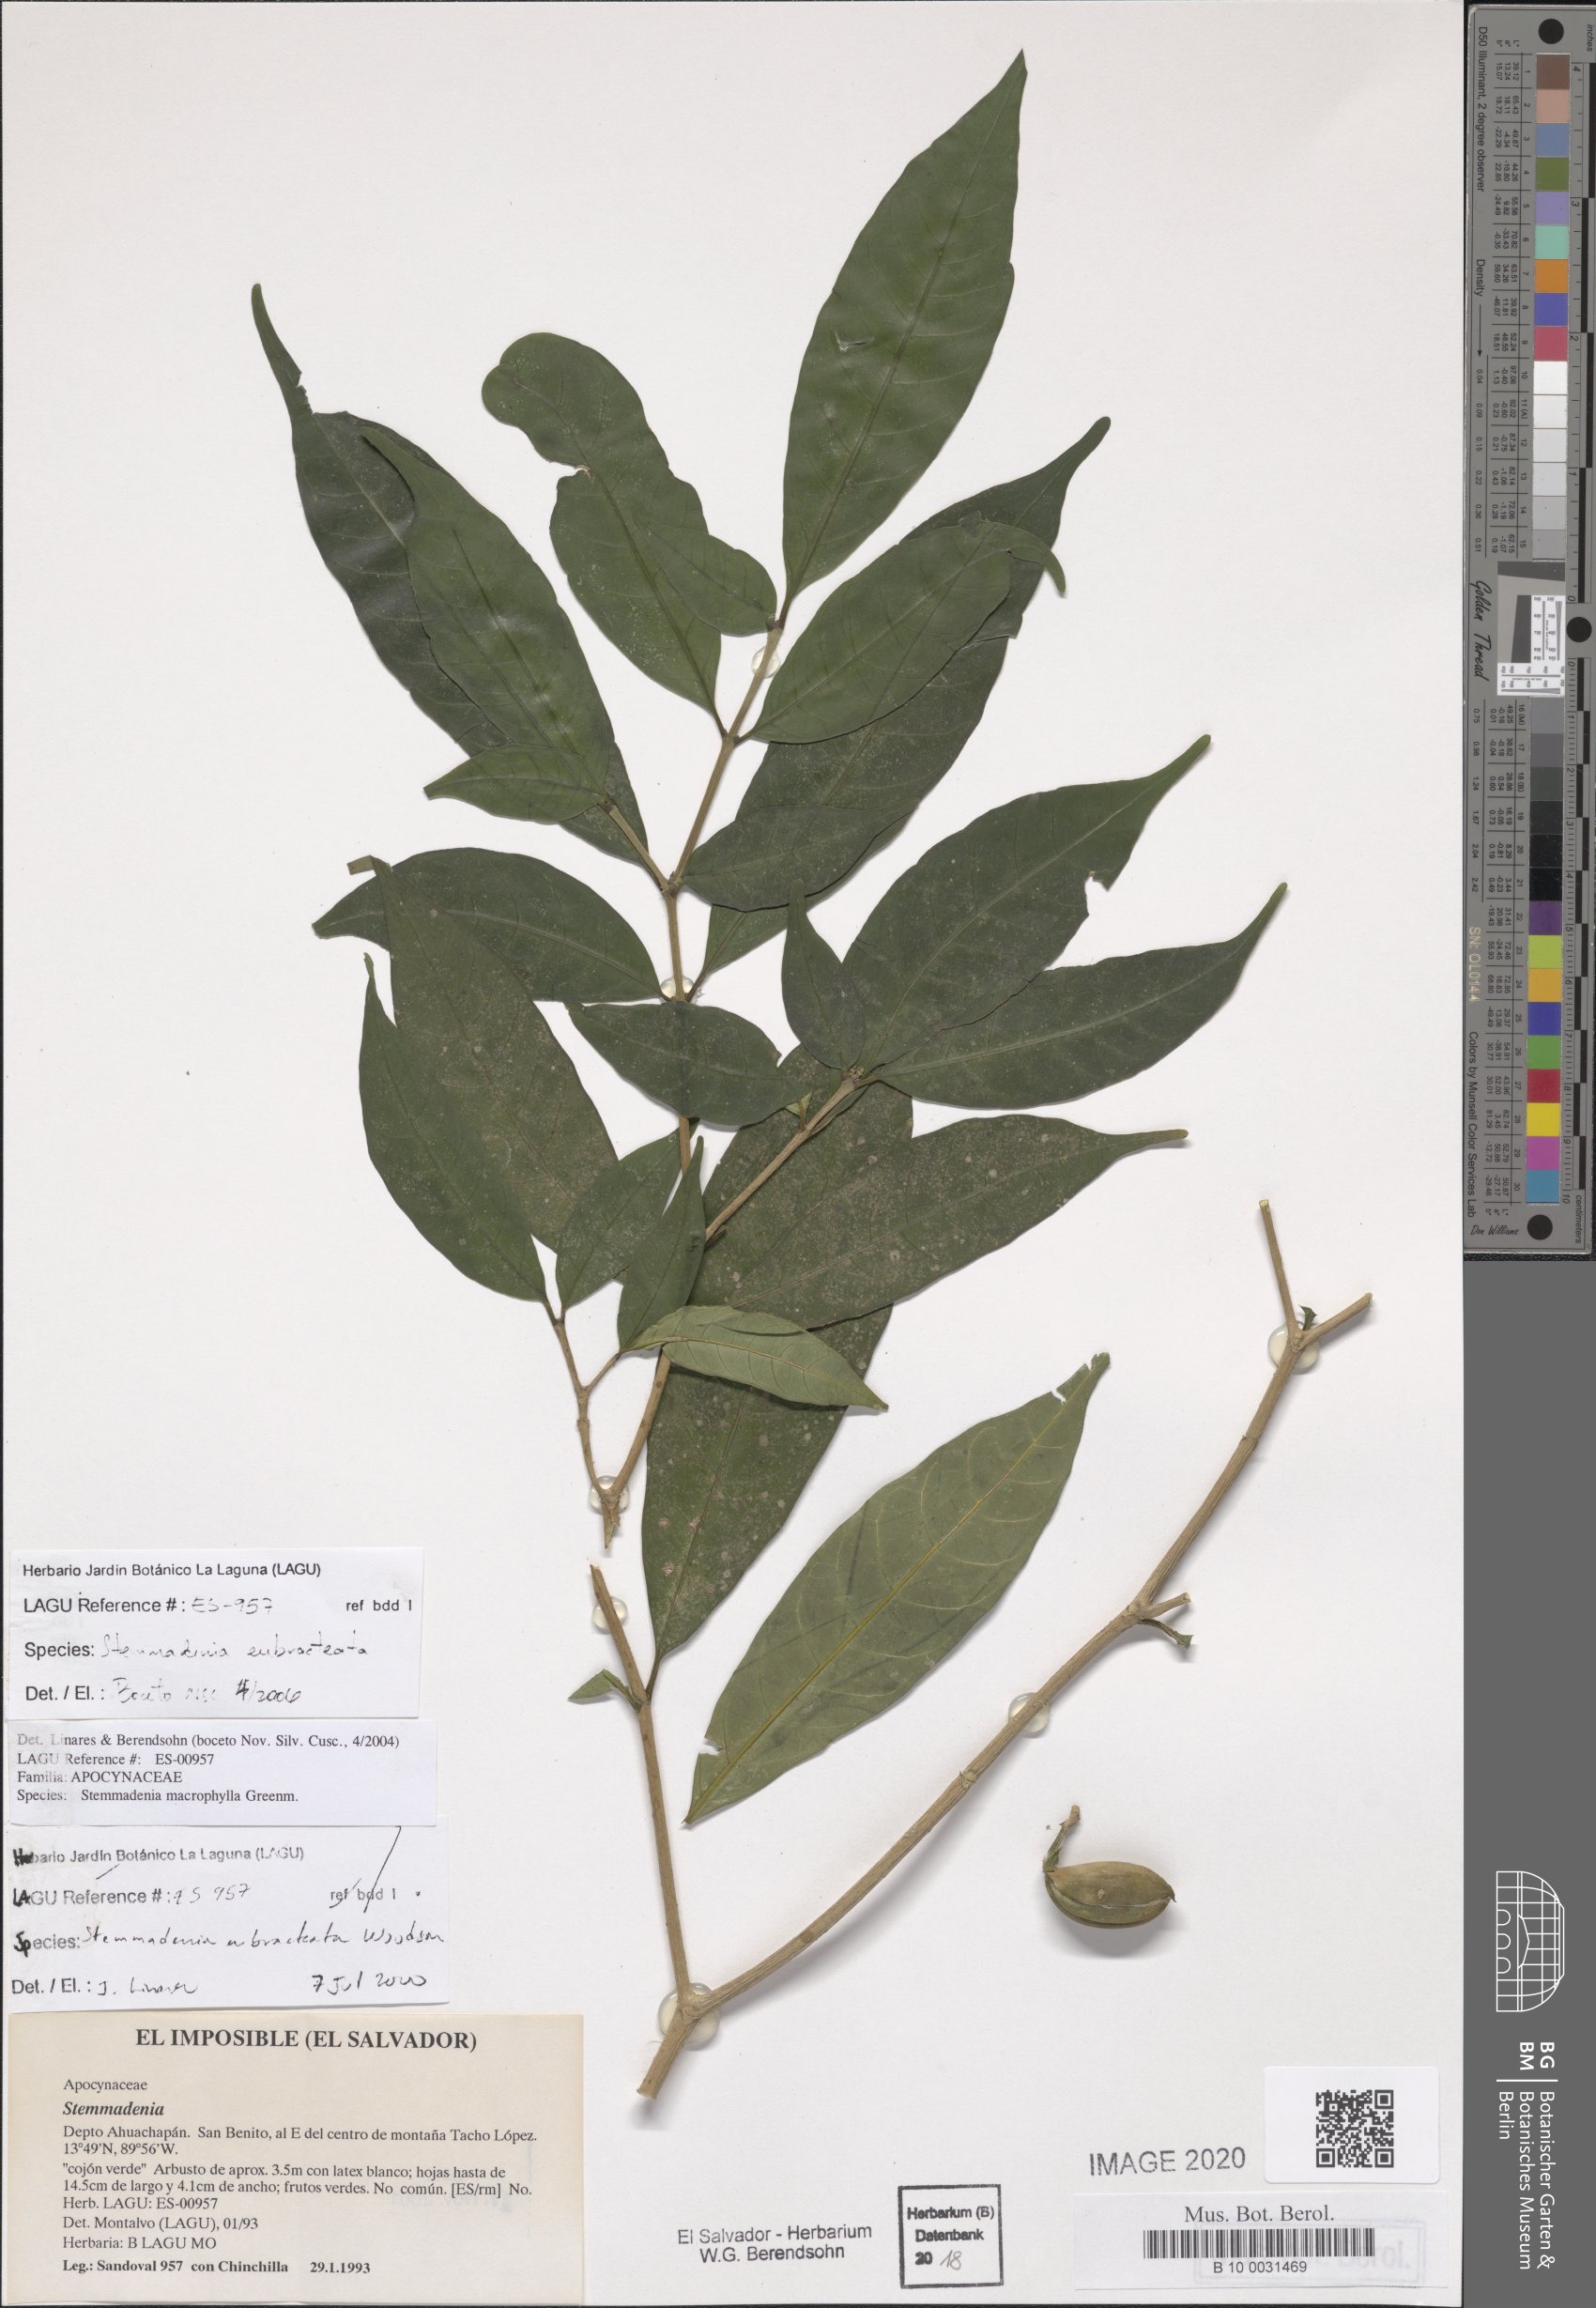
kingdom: Plantae
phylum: Tracheophyta
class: Magnoliopsida
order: Gentianales
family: Apocynaceae
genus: Tabernaemontana
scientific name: Tabernaemontana eubracteata
